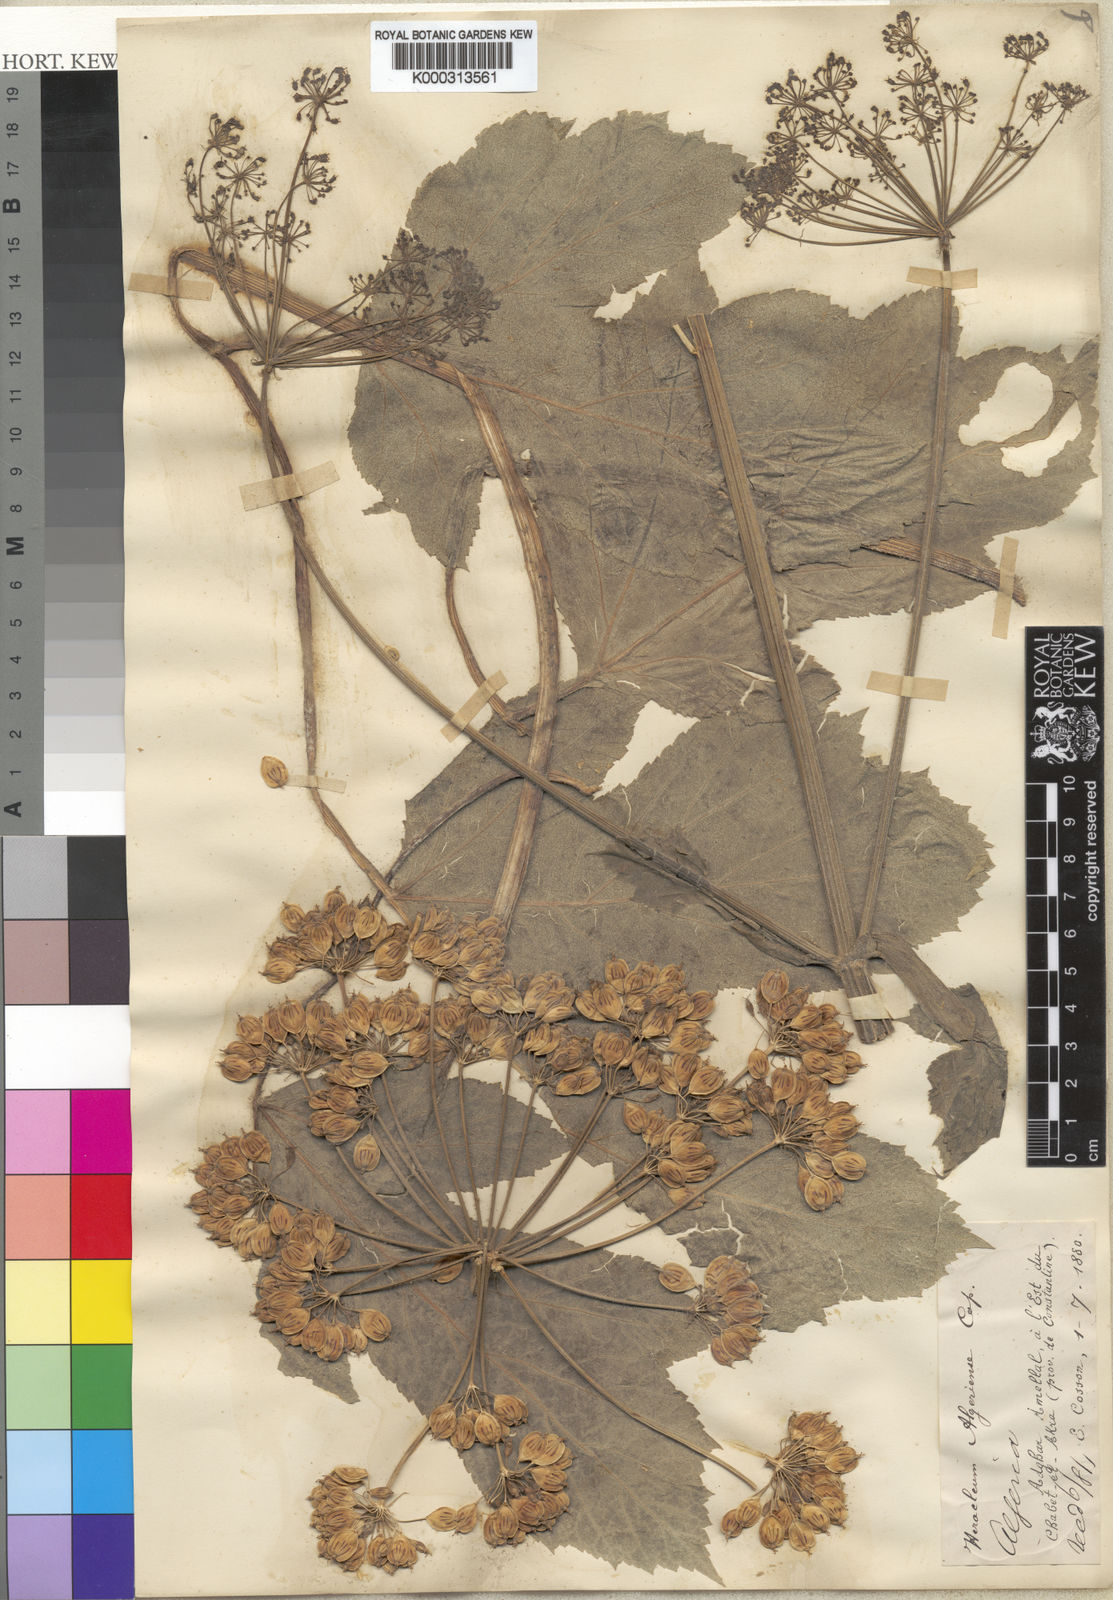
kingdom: Plantae
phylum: Tracheophyta
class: Magnoliopsida
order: Apiales
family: Apiaceae
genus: Heracleum
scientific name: Heracleum
